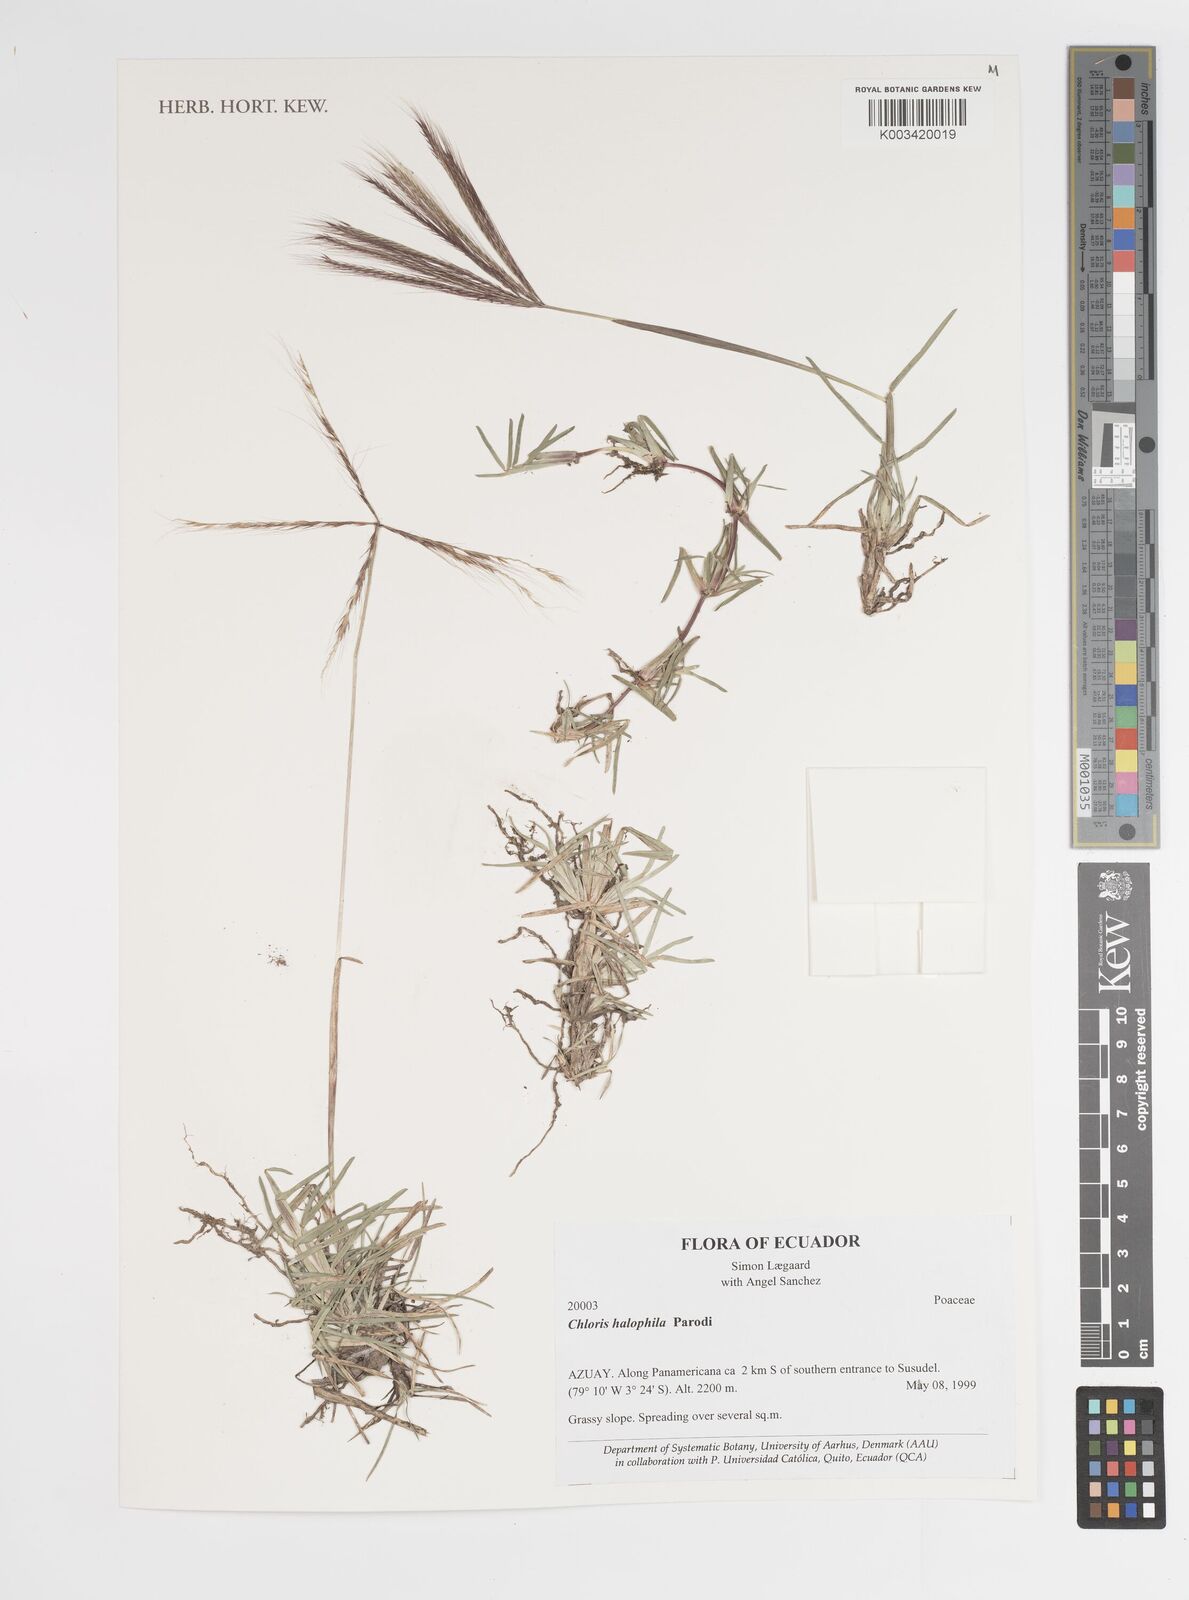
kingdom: Plantae
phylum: Tracheophyta
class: Liliopsida
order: Poales
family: Poaceae
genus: Chloris
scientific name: Chloris halophila
